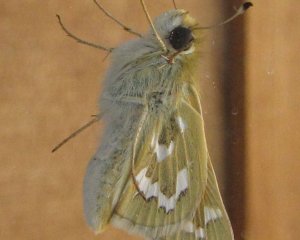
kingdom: Animalia
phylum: Arthropoda
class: Insecta
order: Lepidoptera
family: Hesperiidae
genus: Hesperia
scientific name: Hesperia comma
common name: Western Branded Skipper
